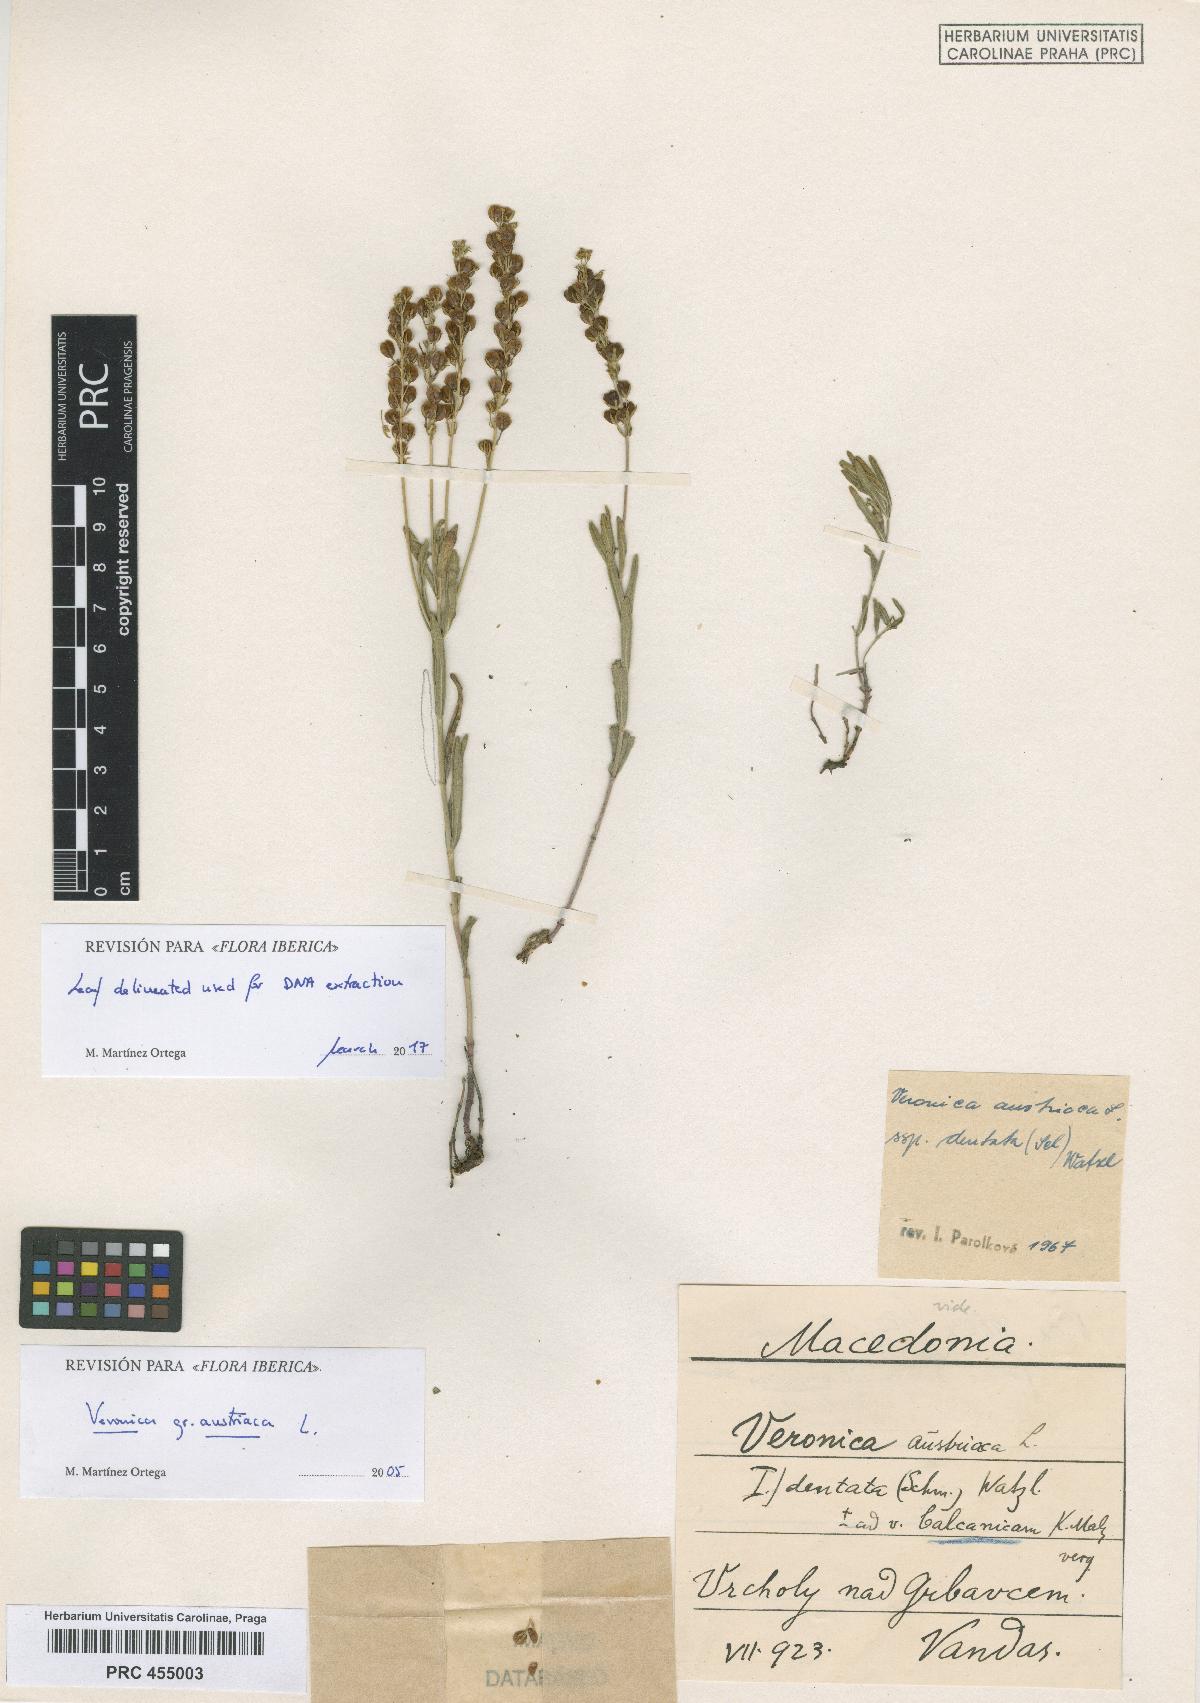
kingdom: Plantae
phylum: Tracheophyta
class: Magnoliopsida
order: Lamiales
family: Plantaginaceae
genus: Veronica
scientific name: Veronica austriaca
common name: Large speedwell
